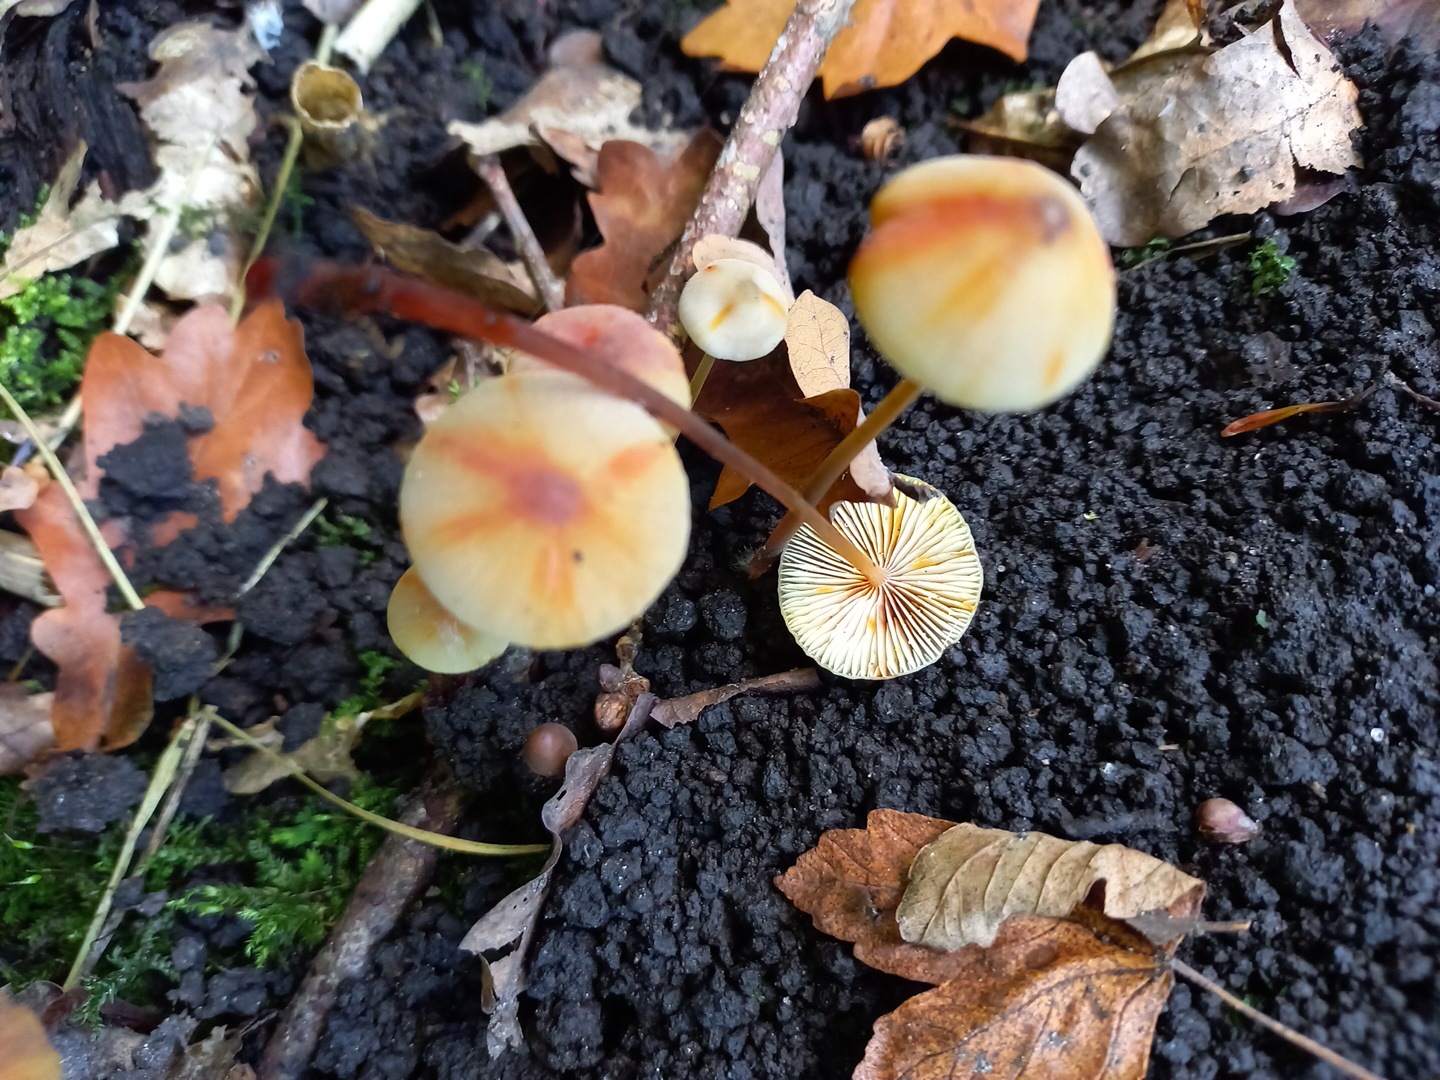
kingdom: Fungi
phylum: Basidiomycota
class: Agaricomycetes
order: Agaricales
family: Mycenaceae
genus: Mycena
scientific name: Mycena crocata
